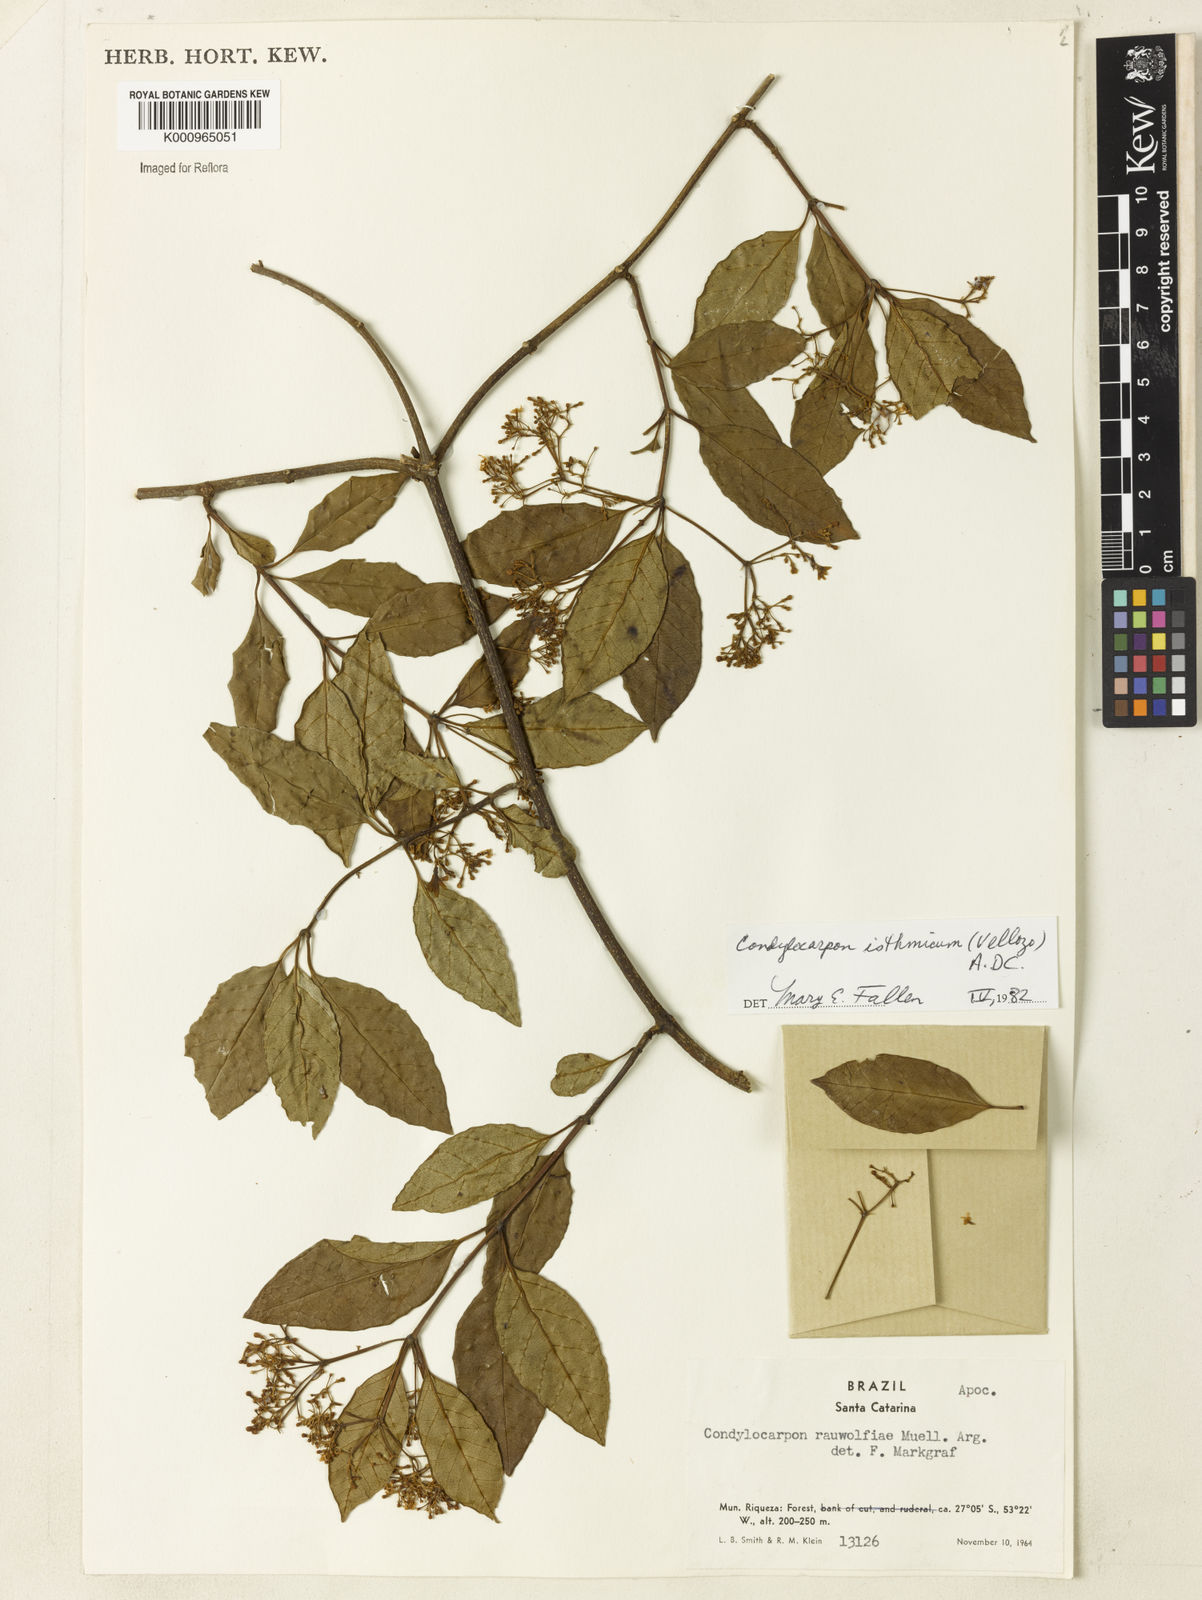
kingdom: Plantae
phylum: Tracheophyta
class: Magnoliopsida
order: Gentianales
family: Apocynaceae
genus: Condylocarpon
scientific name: Condylocarpon isthmicum
